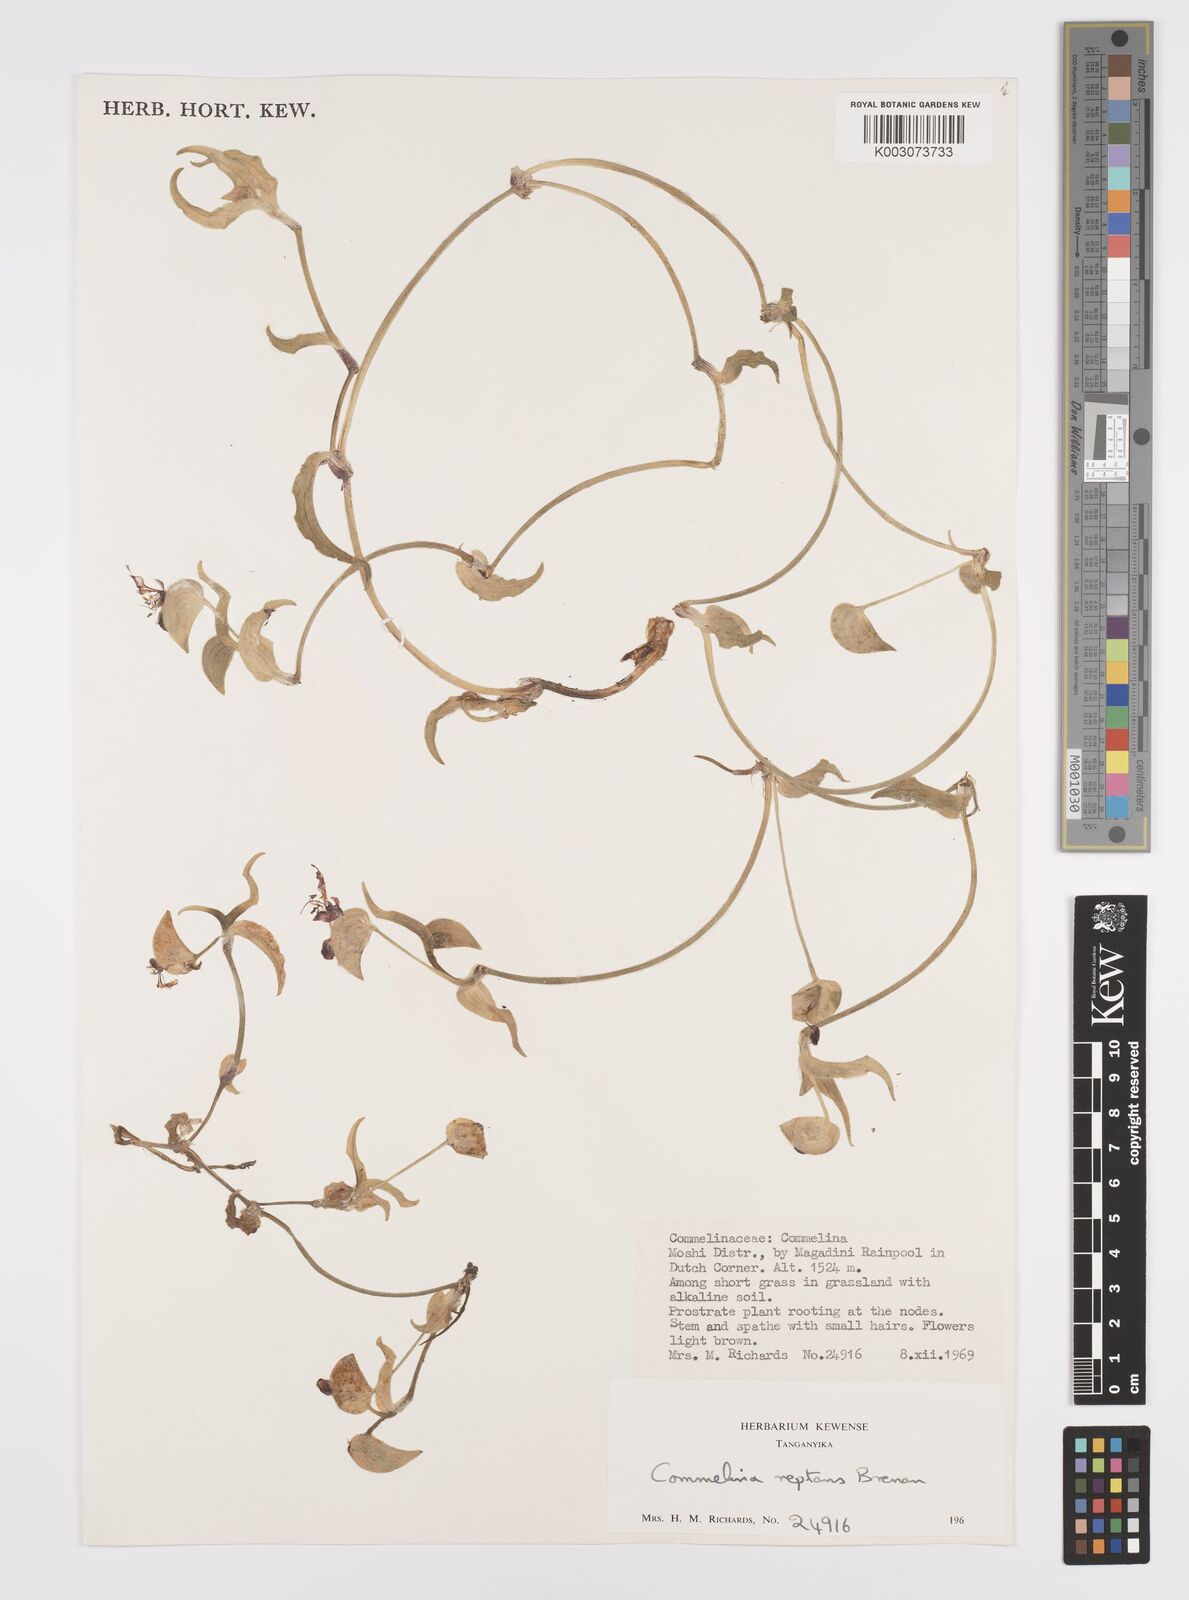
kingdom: Plantae
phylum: Tracheophyta
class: Liliopsida
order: Commelinales
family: Commelinaceae
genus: Commelina
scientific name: Commelina reptans
